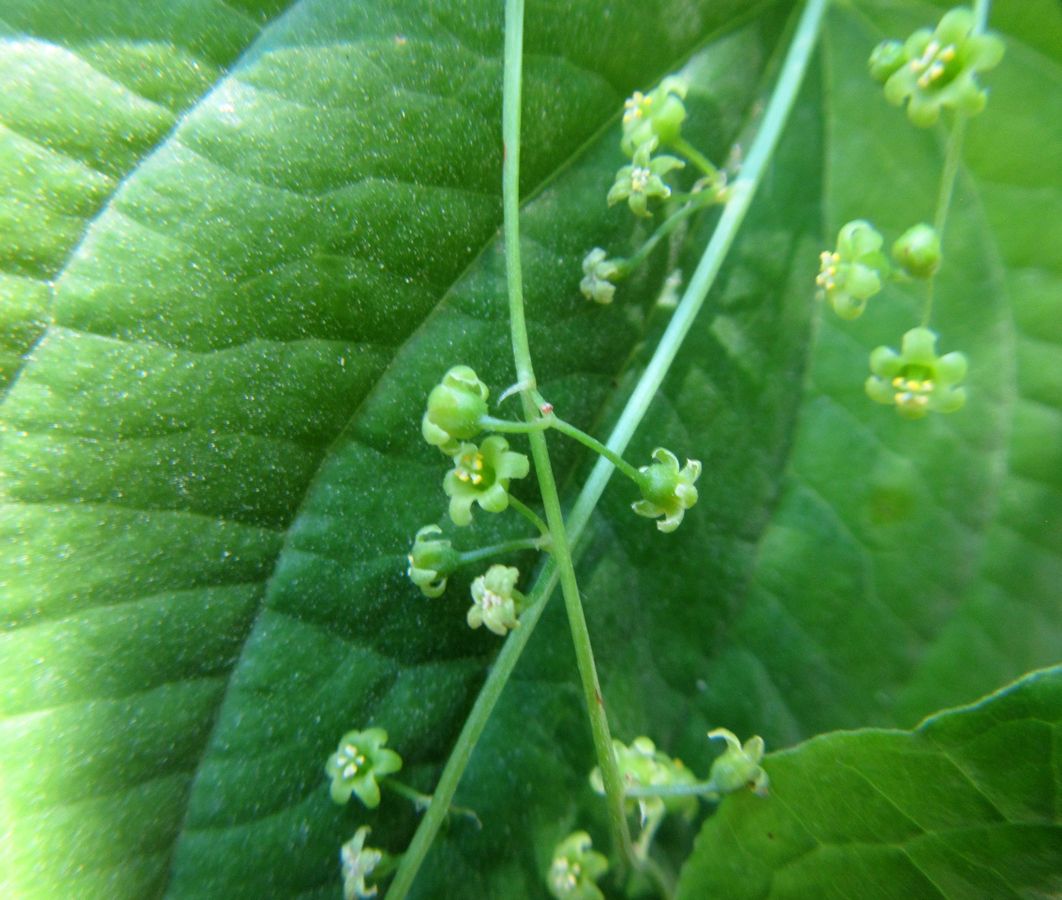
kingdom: Plantae
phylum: Tracheophyta
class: Liliopsida
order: Dioscoreales
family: Dioscoreaceae
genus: Dioscorea
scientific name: Dioscorea communis
